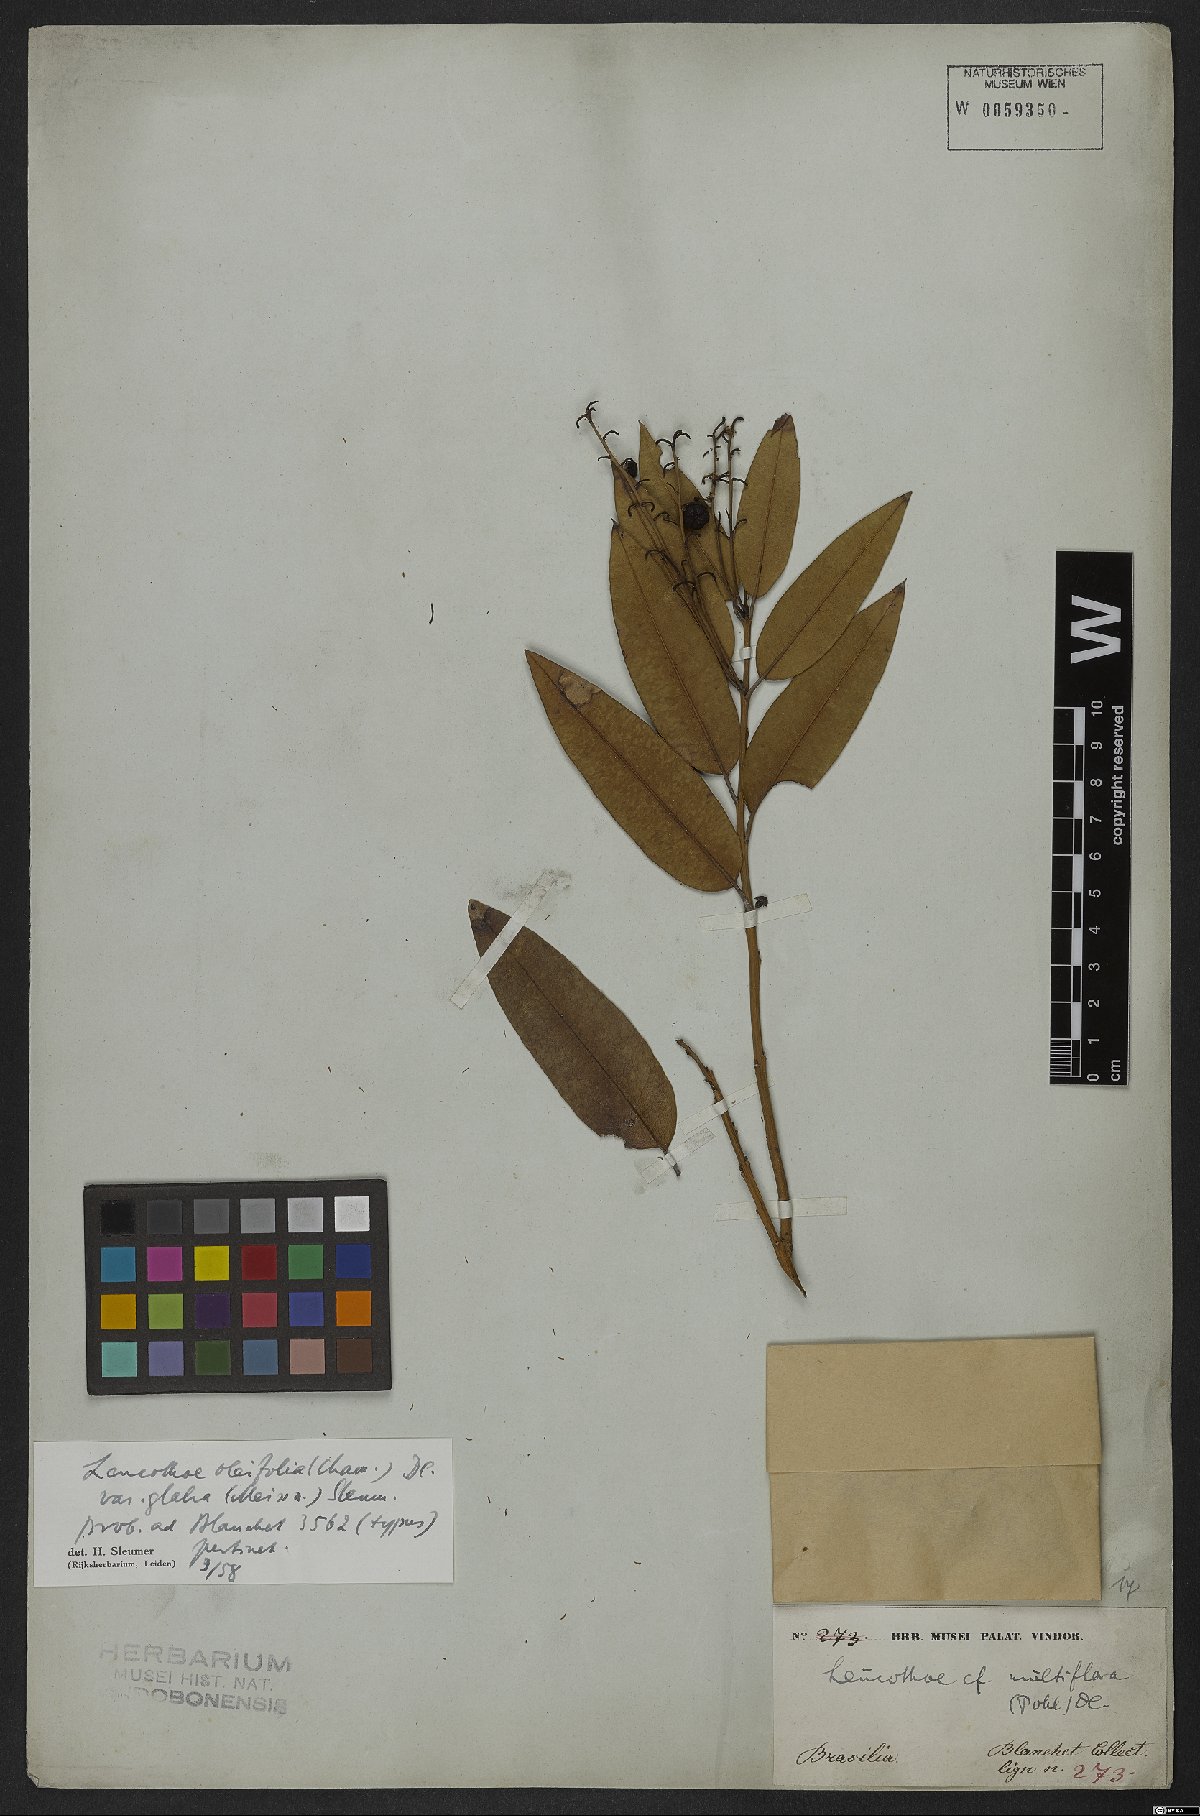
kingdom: Plantae
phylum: Tracheophyta
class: Magnoliopsida
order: Ericales
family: Ericaceae
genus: Agarista
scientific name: Agarista oleifolia
